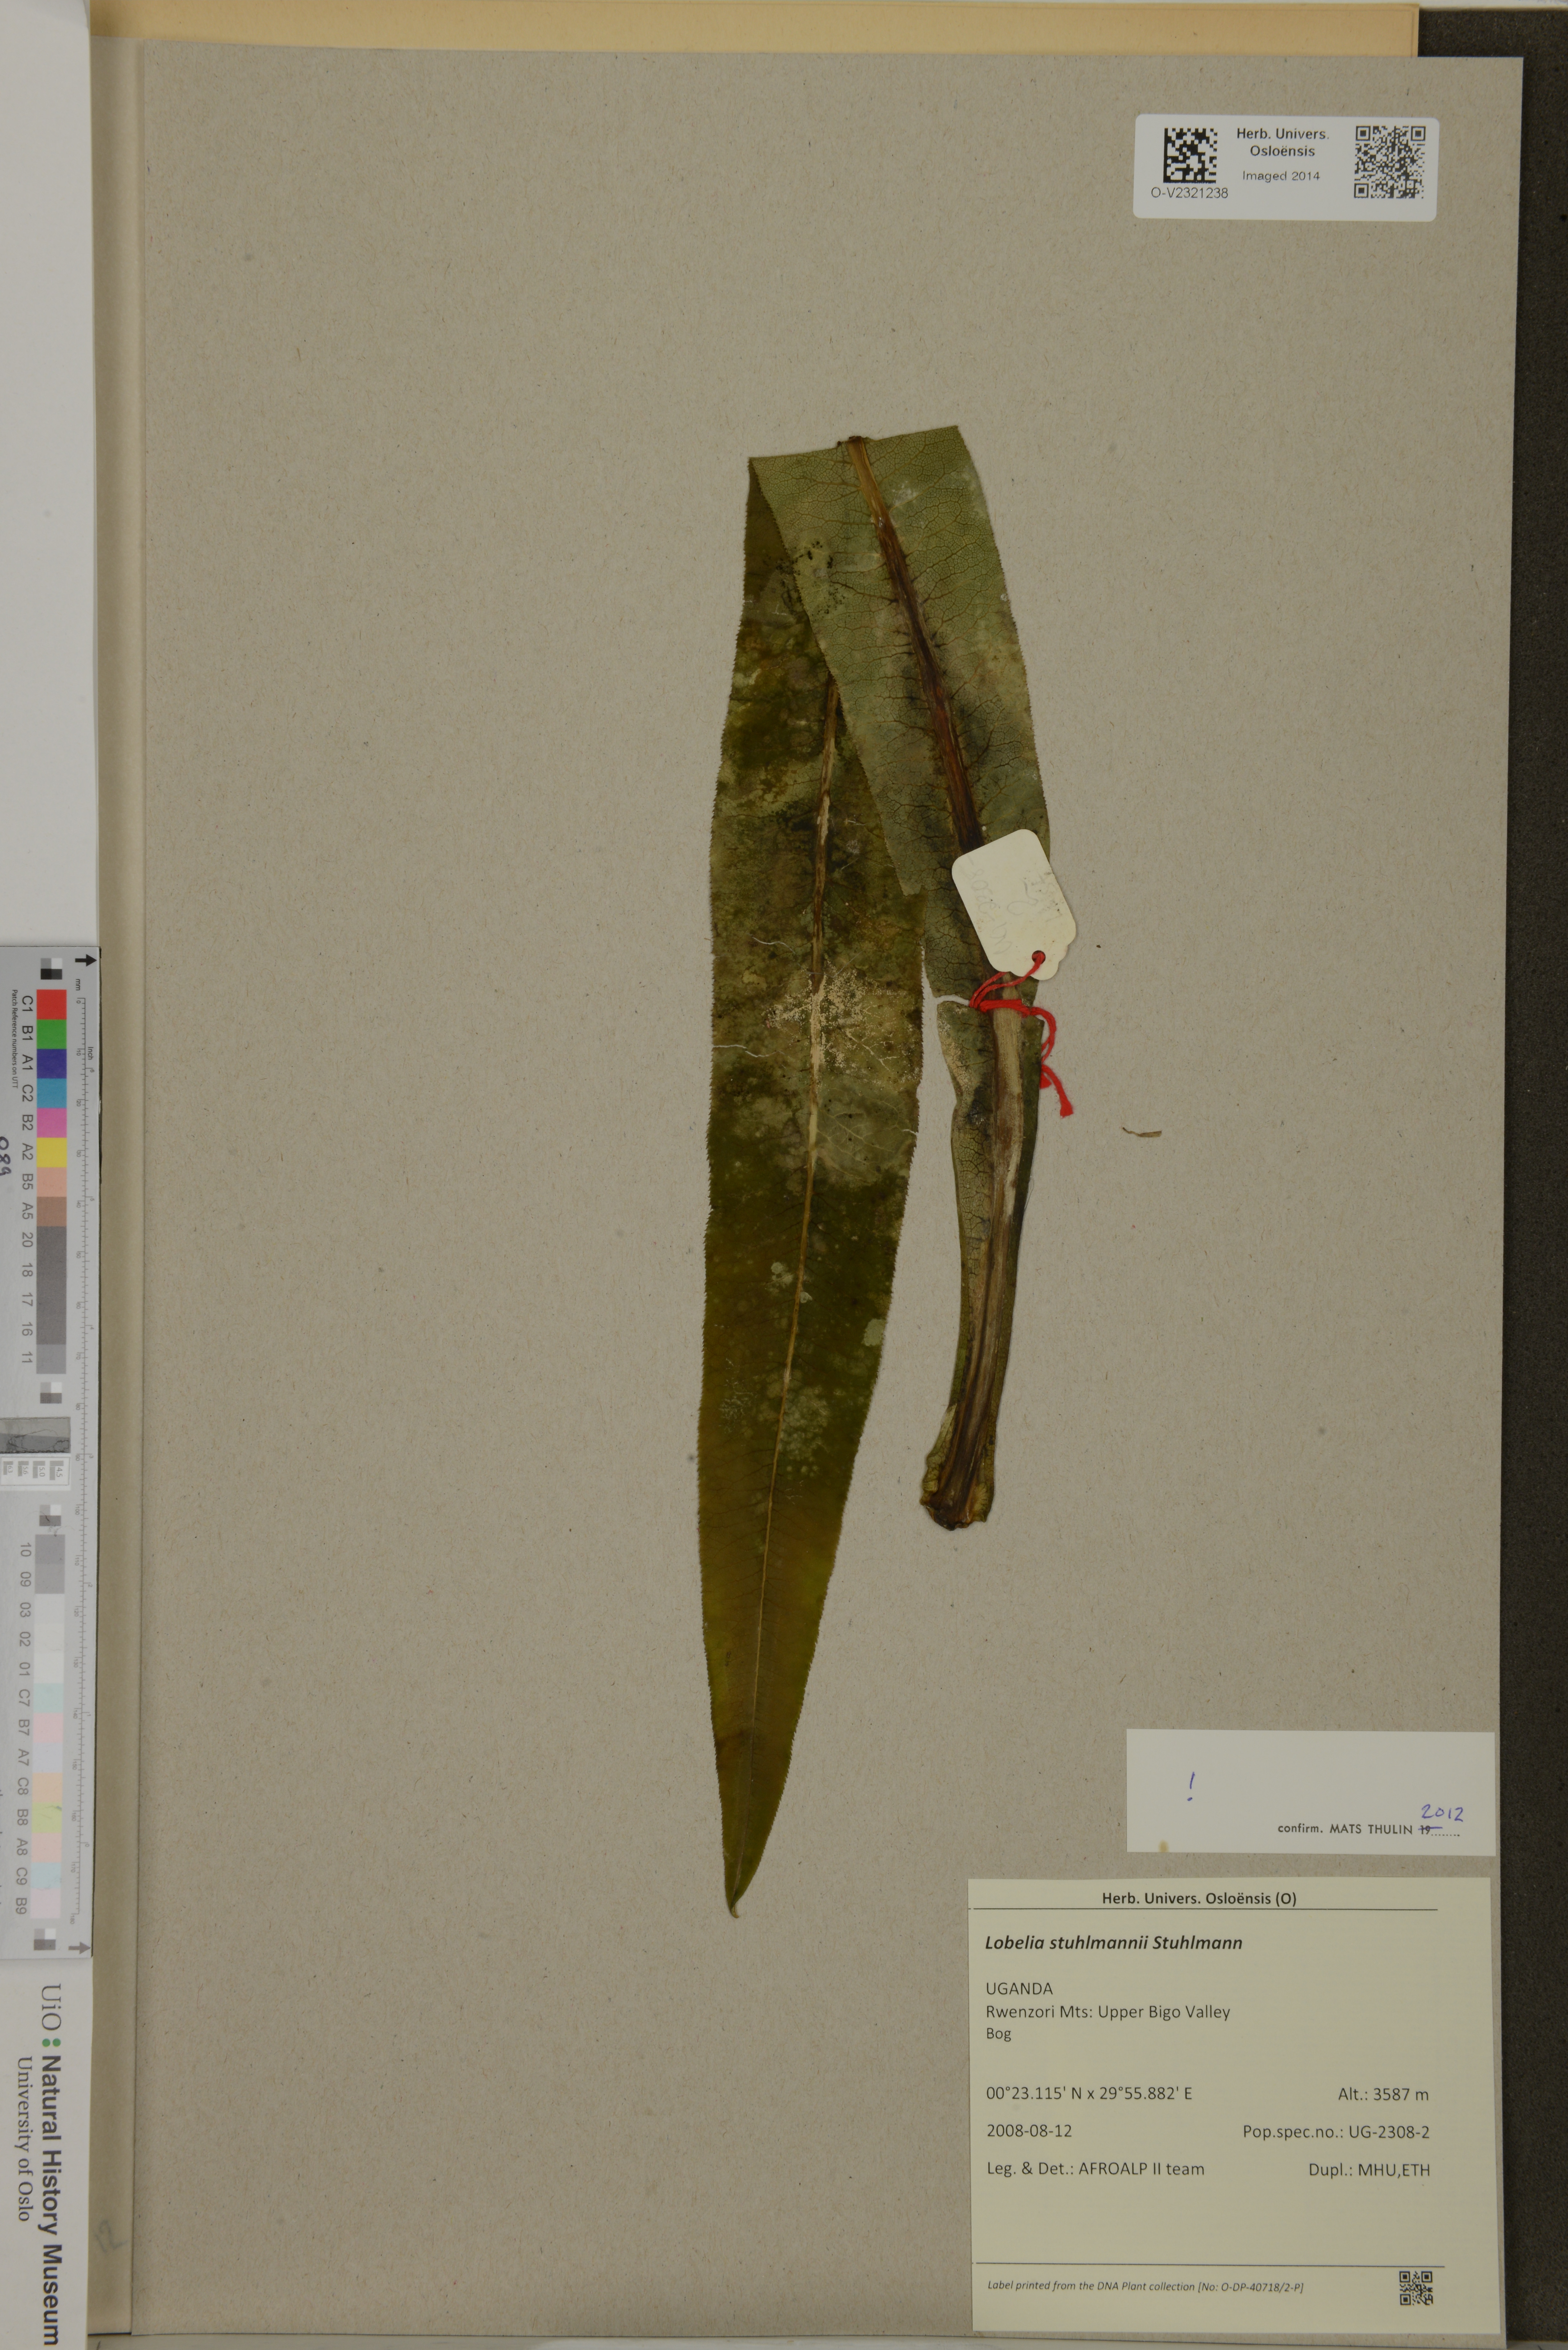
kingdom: Plantae
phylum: Tracheophyta
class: Magnoliopsida
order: Asterales
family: Campanulaceae
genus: Lobelia
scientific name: Lobelia stuhlmannii
